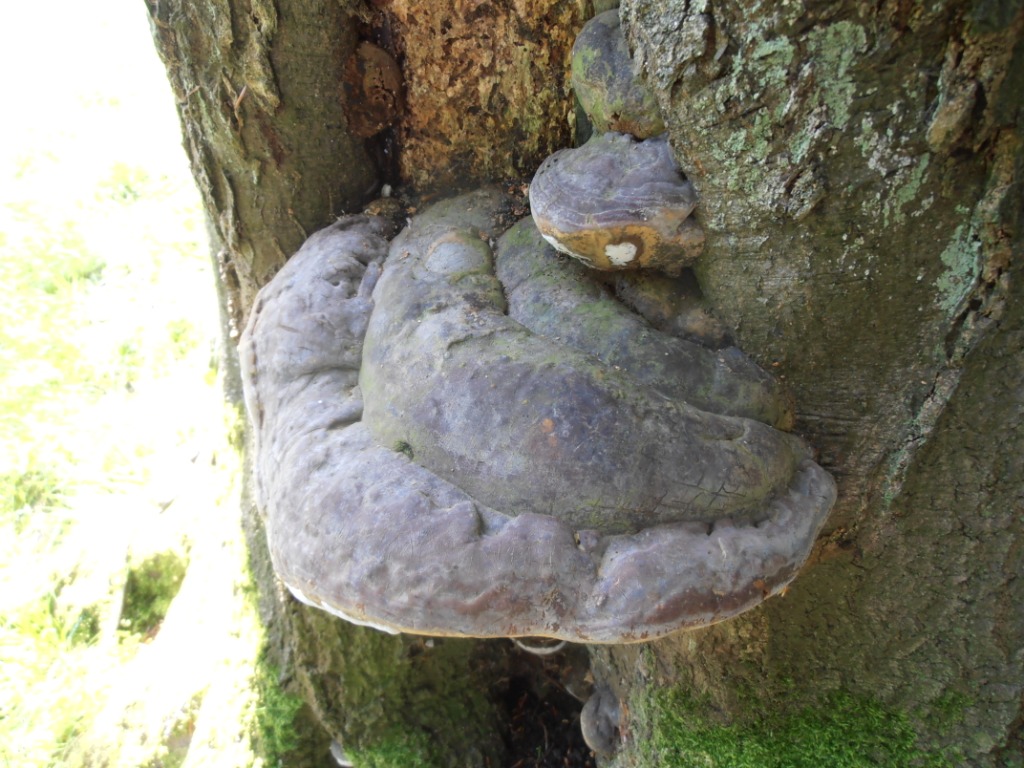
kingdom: Fungi
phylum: Basidiomycota
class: Agaricomycetes
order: Polyporales
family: Polyporaceae
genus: Ganoderma
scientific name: Ganoderma pfeifferi
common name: kobberrød lakporesvamp
